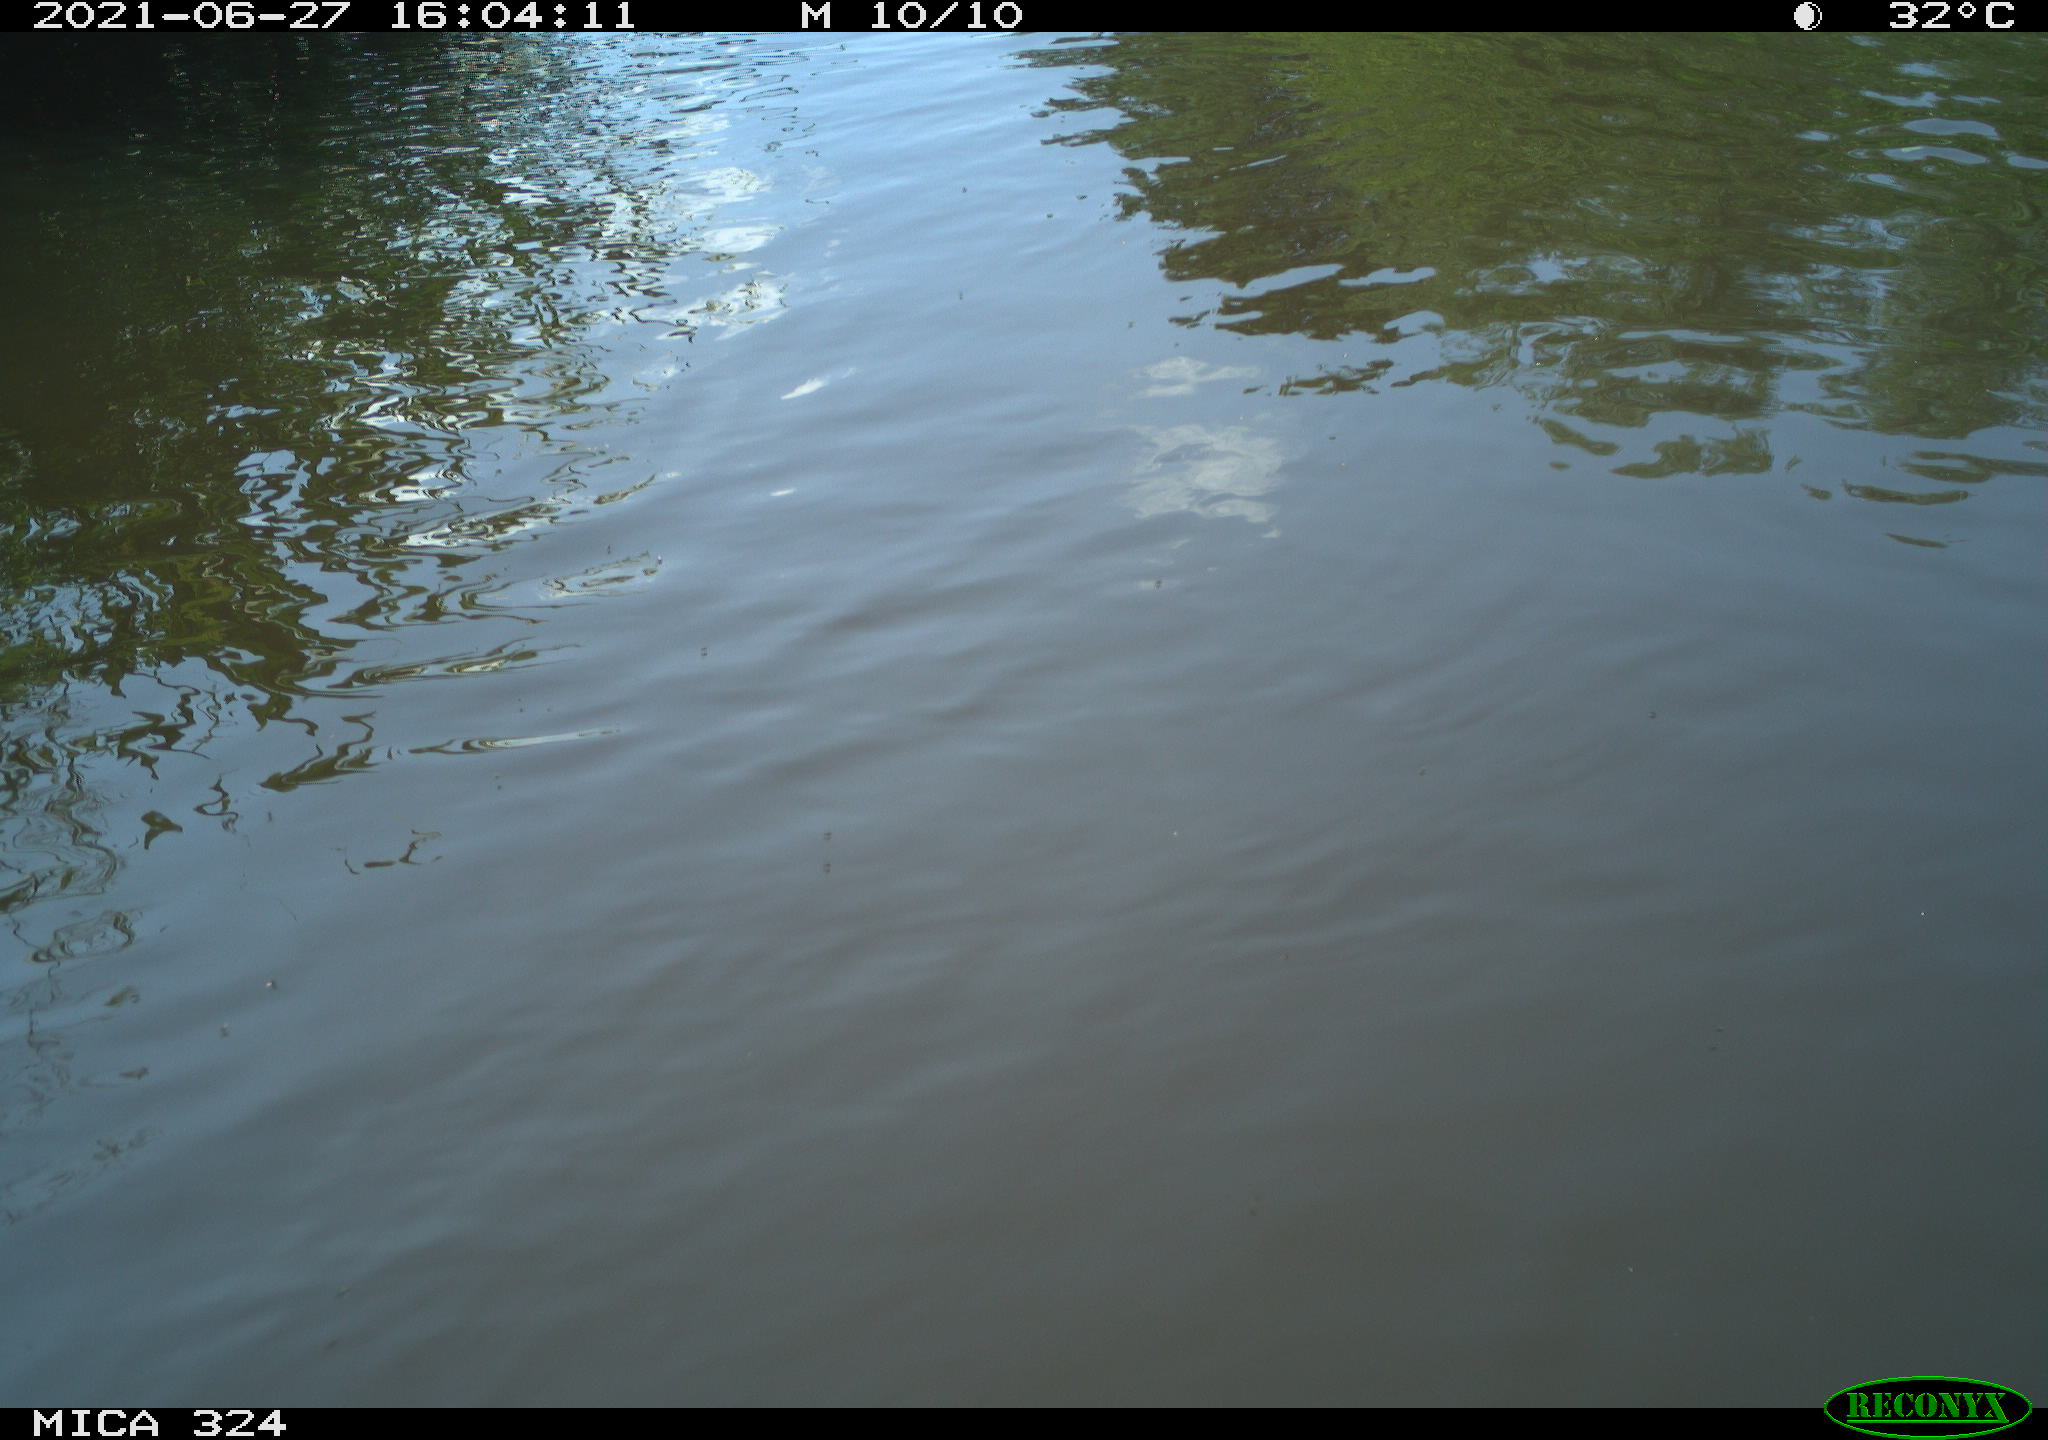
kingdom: Animalia
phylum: Chordata
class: Mammalia
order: Rodentia
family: Cricetidae
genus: Ondatra
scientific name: Ondatra zibethicus
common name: Muskrat
